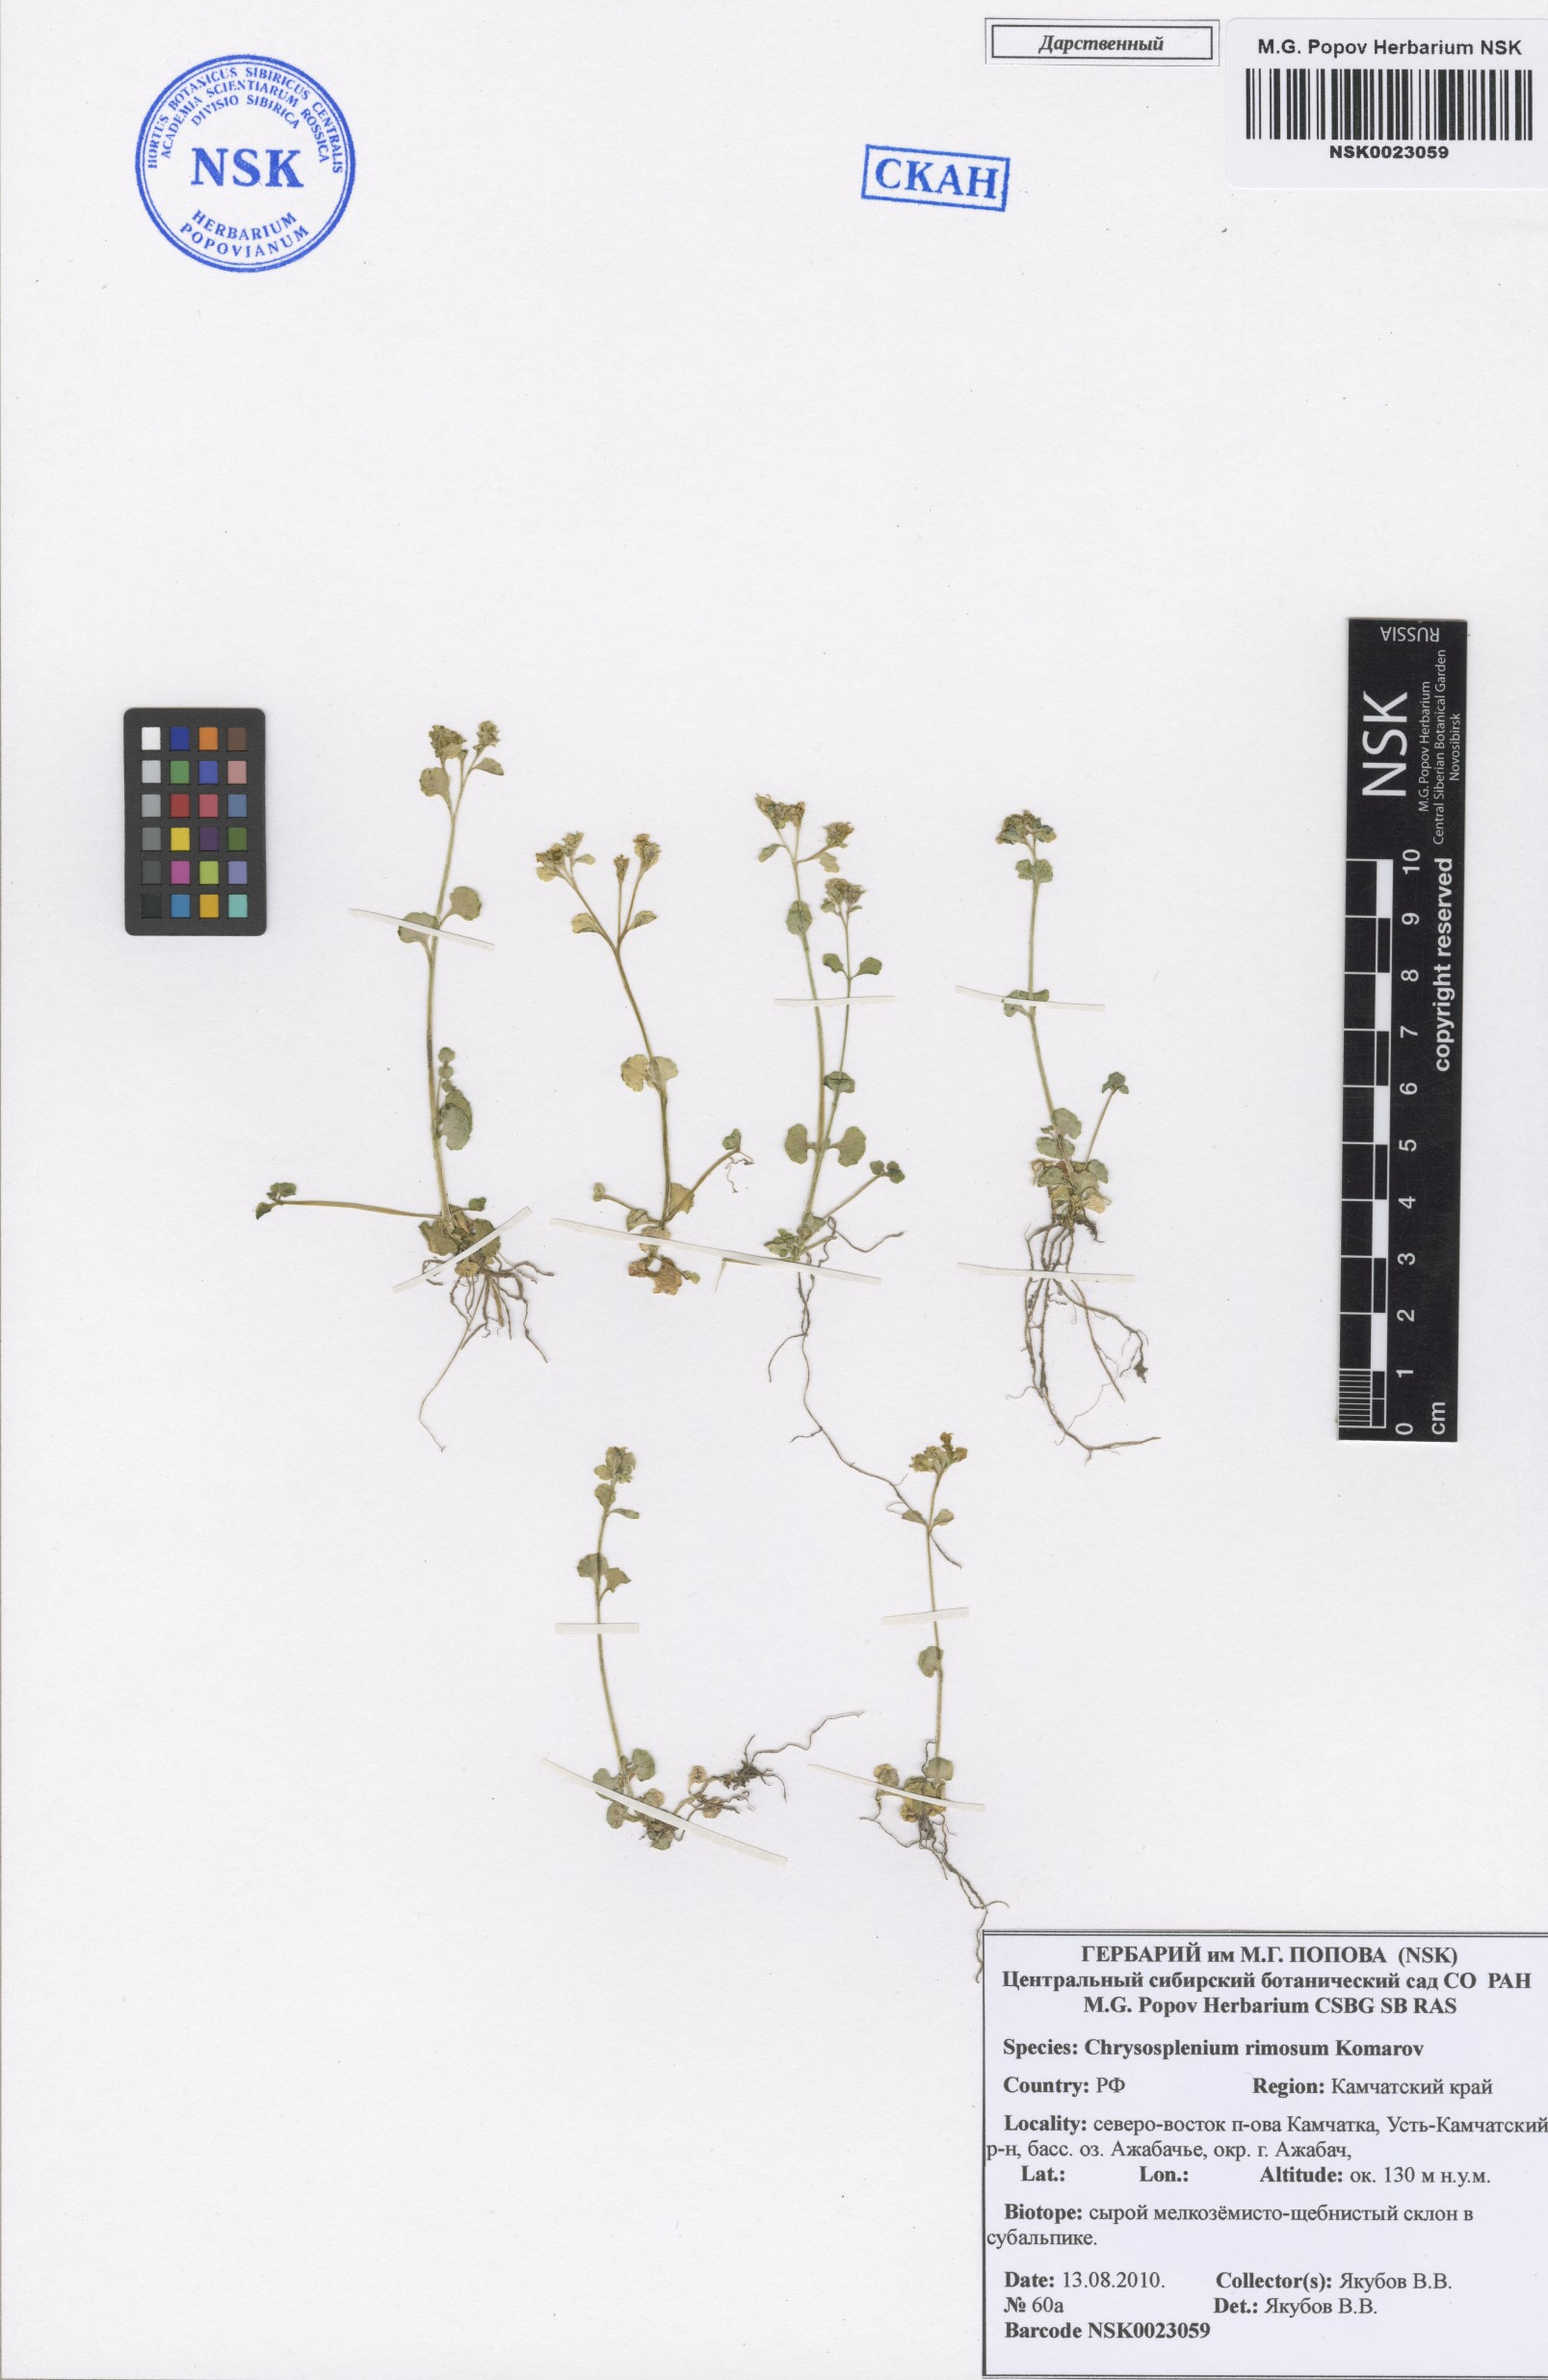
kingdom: Plantae
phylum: Tracheophyta
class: Magnoliopsida
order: Saxifragales
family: Saxifragaceae
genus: Chrysosplenium
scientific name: Chrysosplenium rimosum
